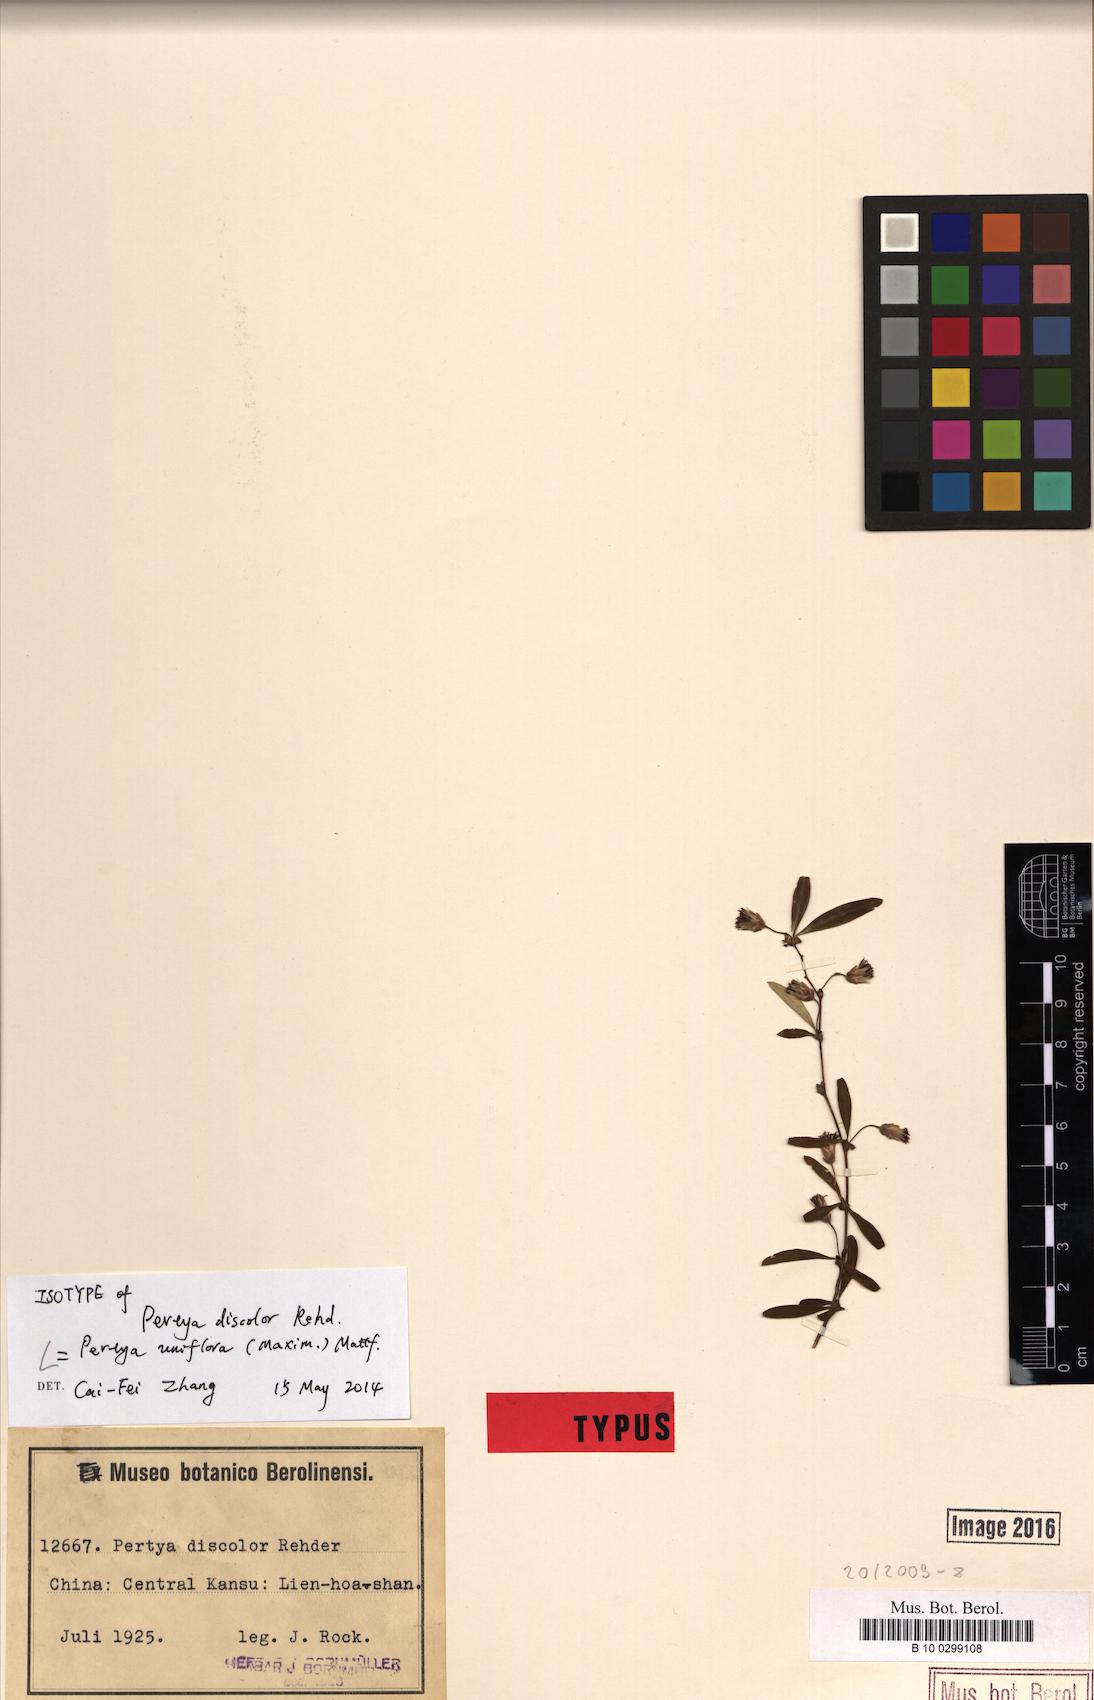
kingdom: Plantae
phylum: Tracheophyta
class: Magnoliopsida
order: Asterales
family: Asteraceae
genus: Pertya
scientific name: Pertya uniflora
